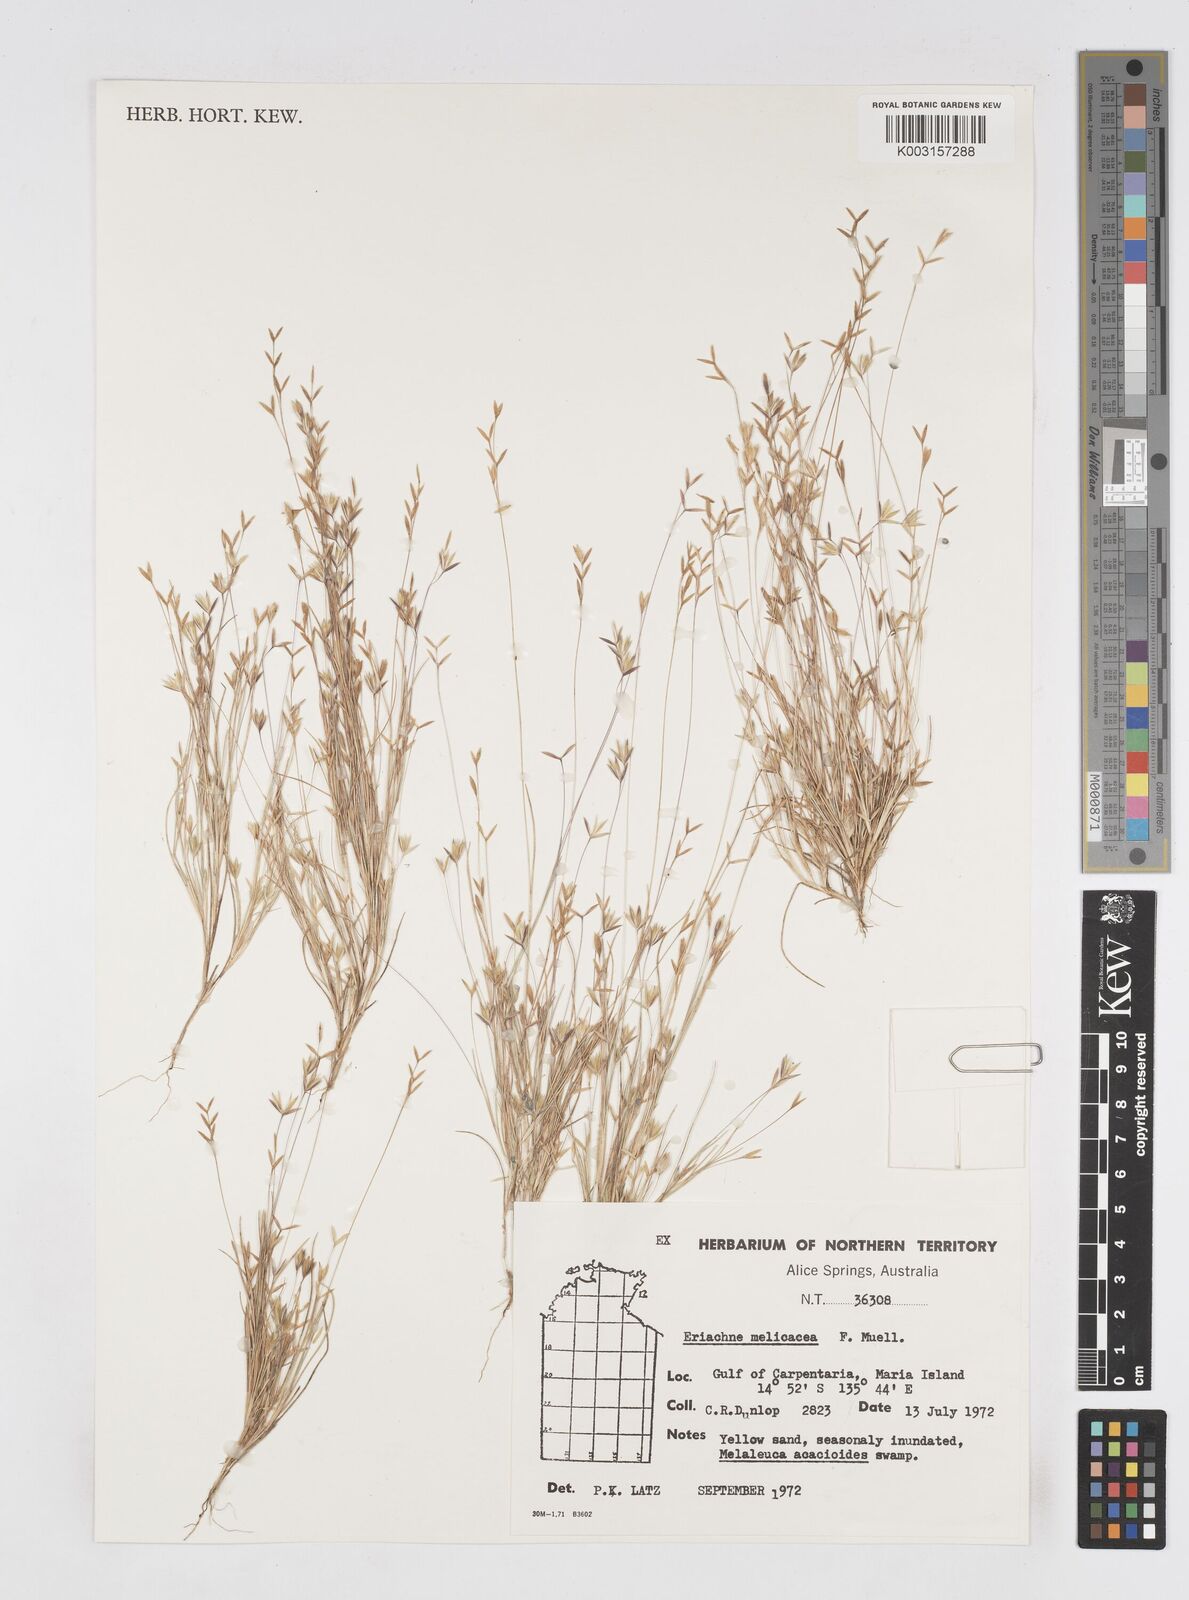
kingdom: Plantae
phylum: Tracheophyta
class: Liliopsida
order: Poales
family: Poaceae
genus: Eriachne
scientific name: Eriachne melicacea
